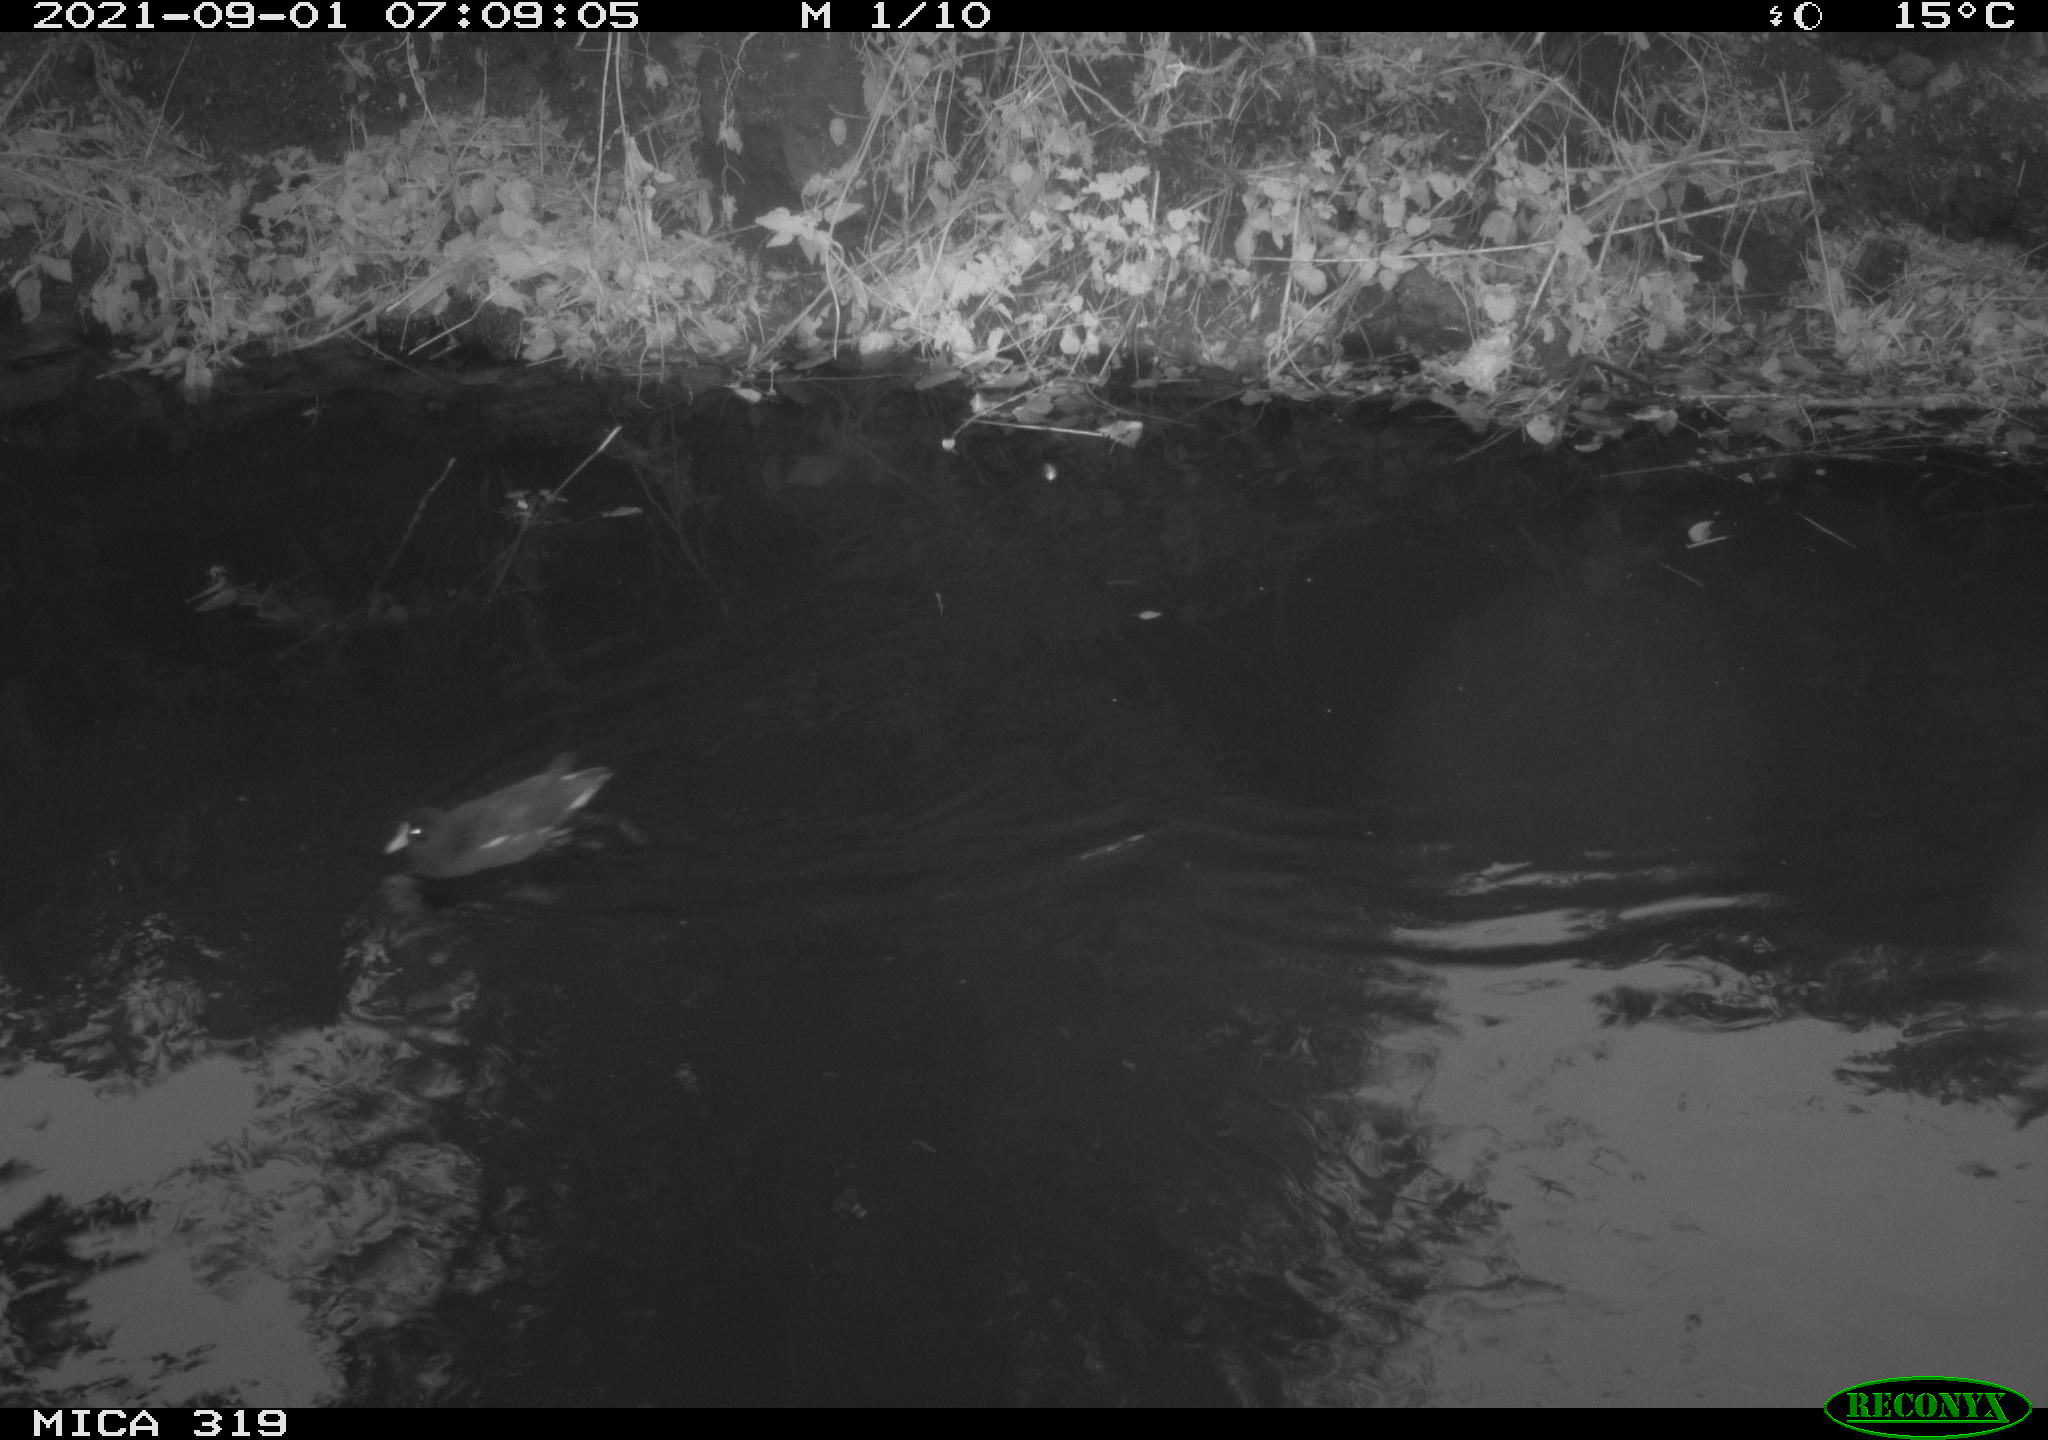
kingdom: Animalia
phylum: Chordata
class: Aves
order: Gruiformes
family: Rallidae
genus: Gallinula
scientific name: Gallinula chloropus
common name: Common moorhen
